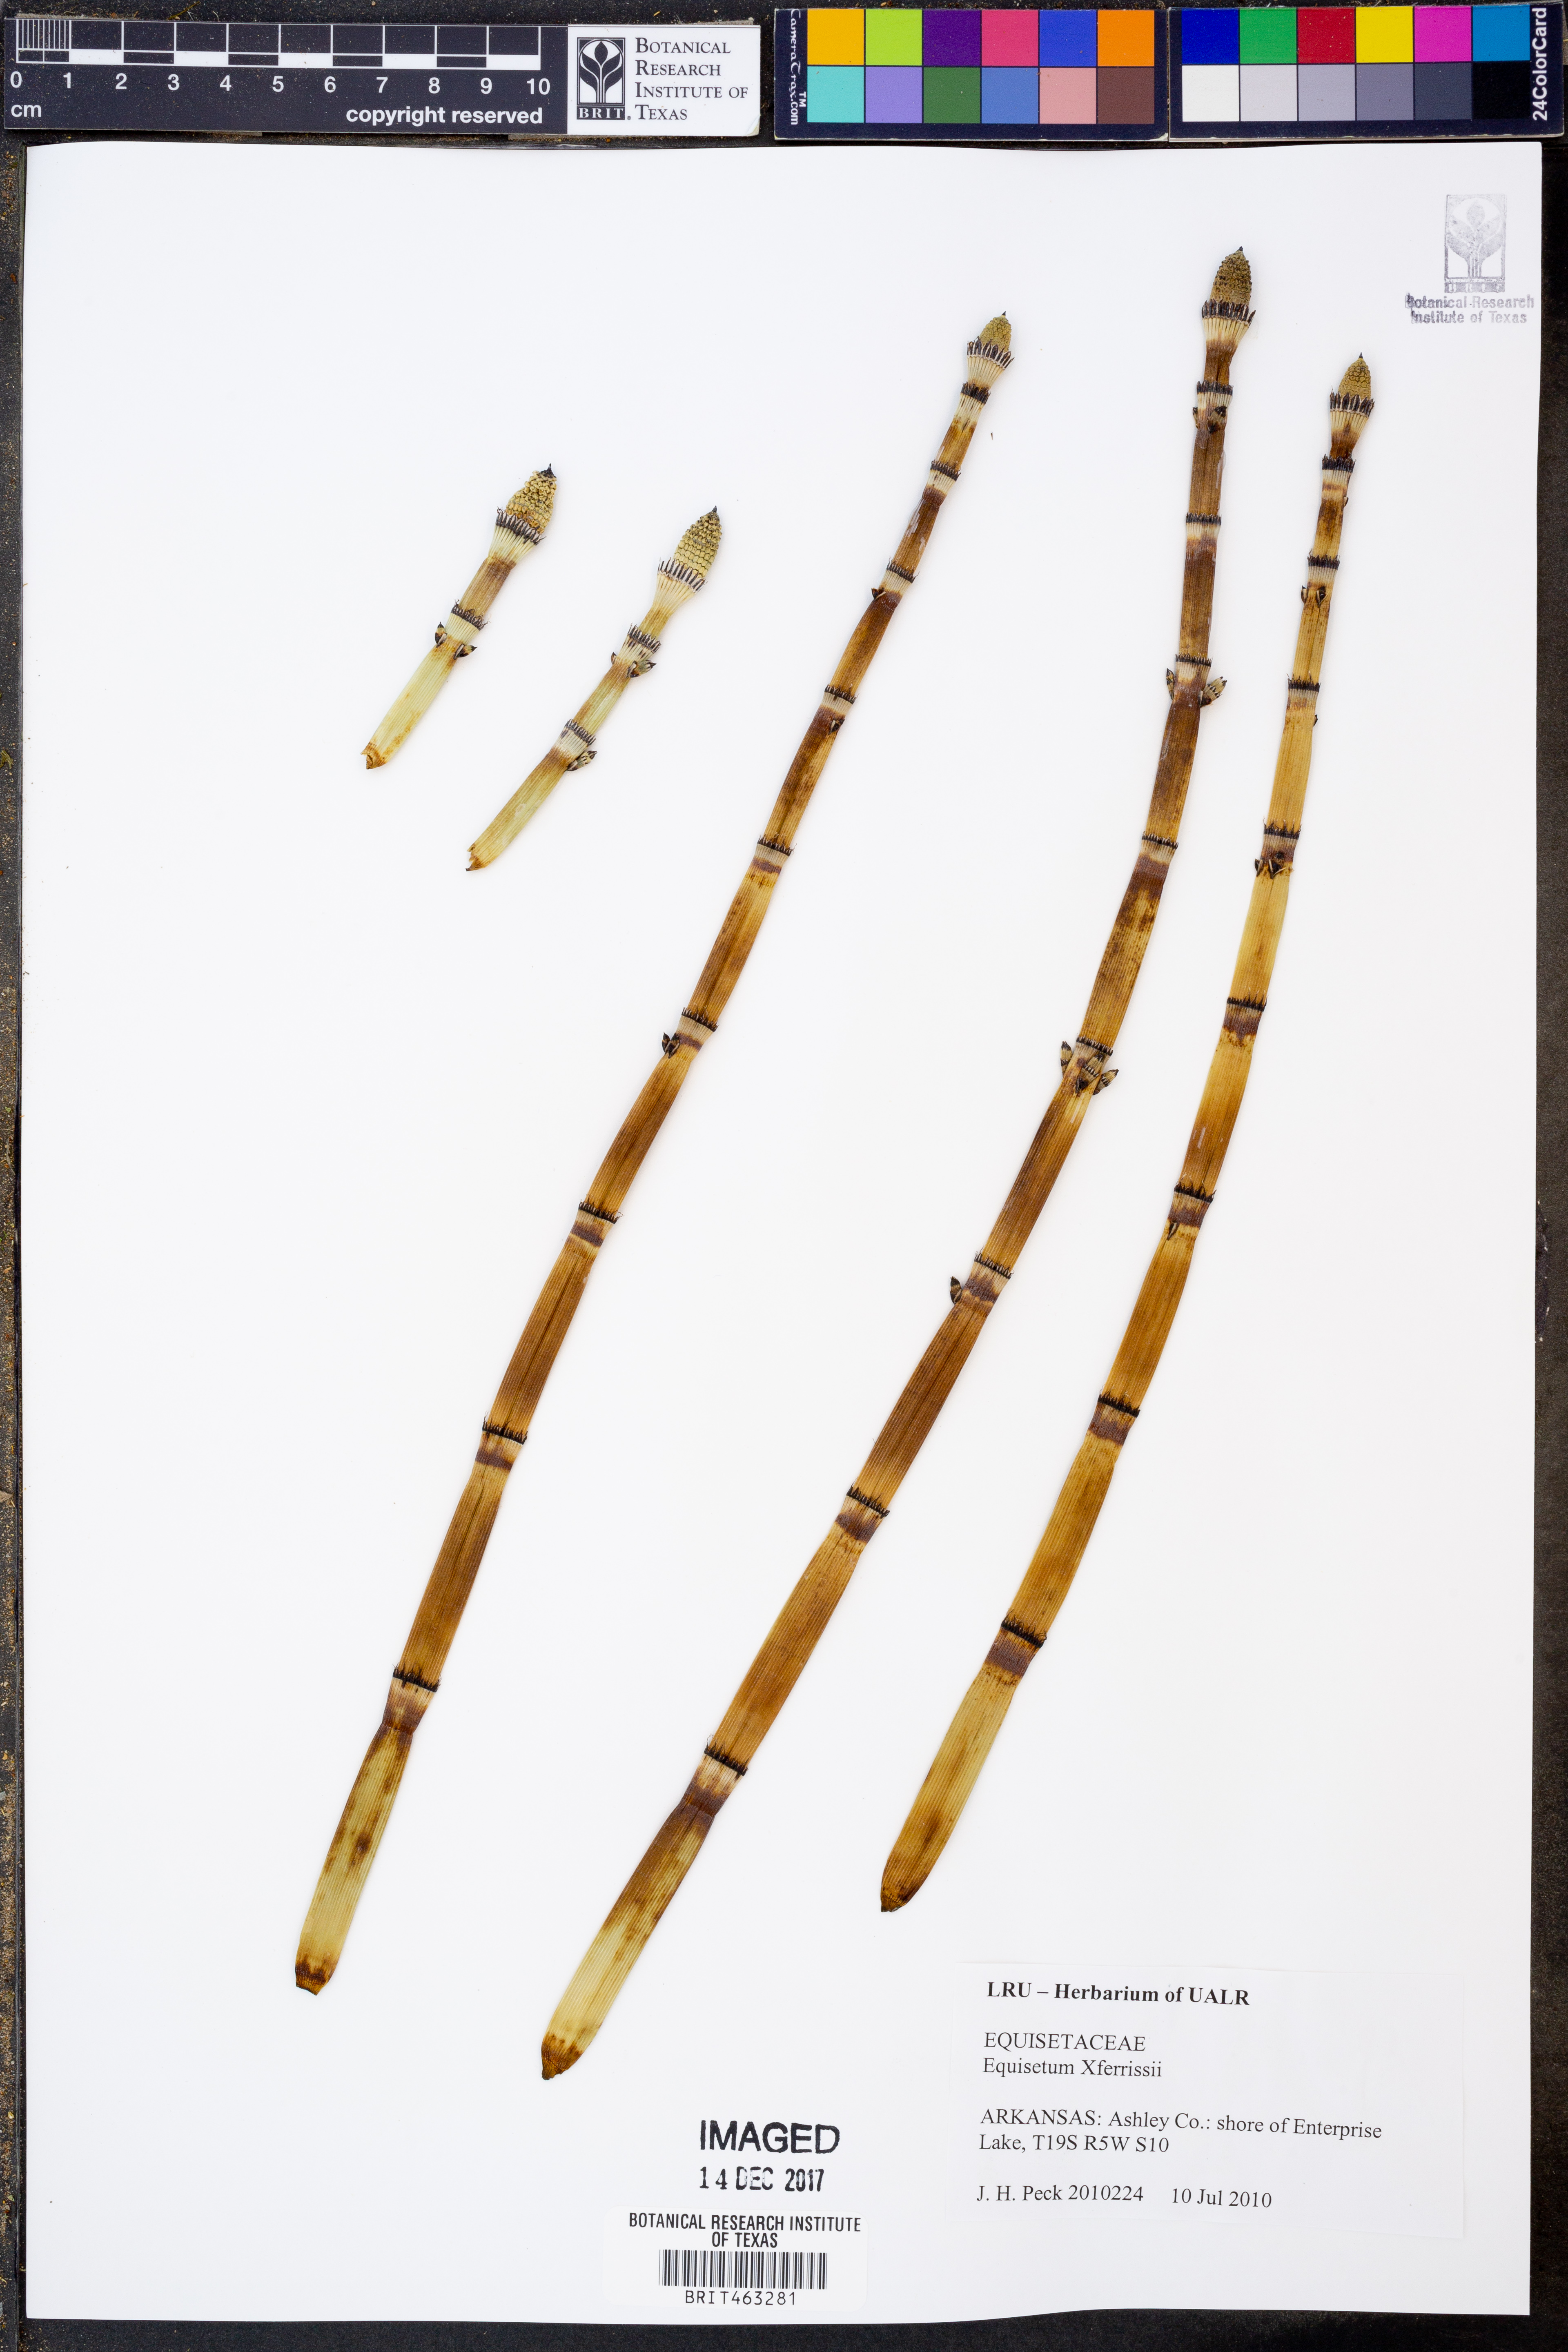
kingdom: Plantae
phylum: Tracheophyta
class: Polypodiopsida
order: Equisetales
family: Equisetaceae
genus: Equisetum
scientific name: Equisetum ferrissii
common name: Ferriss' horsetail
